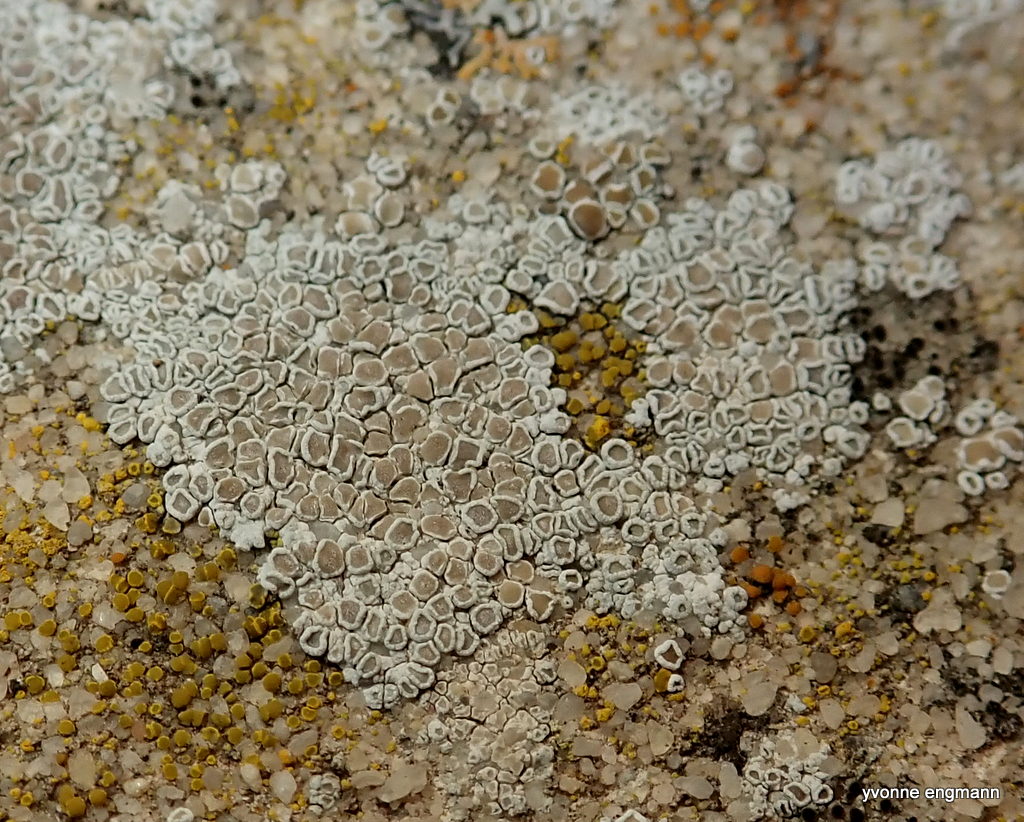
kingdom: Fungi
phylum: Ascomycota
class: Lecanoromycetes
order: Lecanorales
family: Lecanoraceae
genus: Polyozosia
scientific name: Polyozosia albescens
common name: cement-kantskivelav
